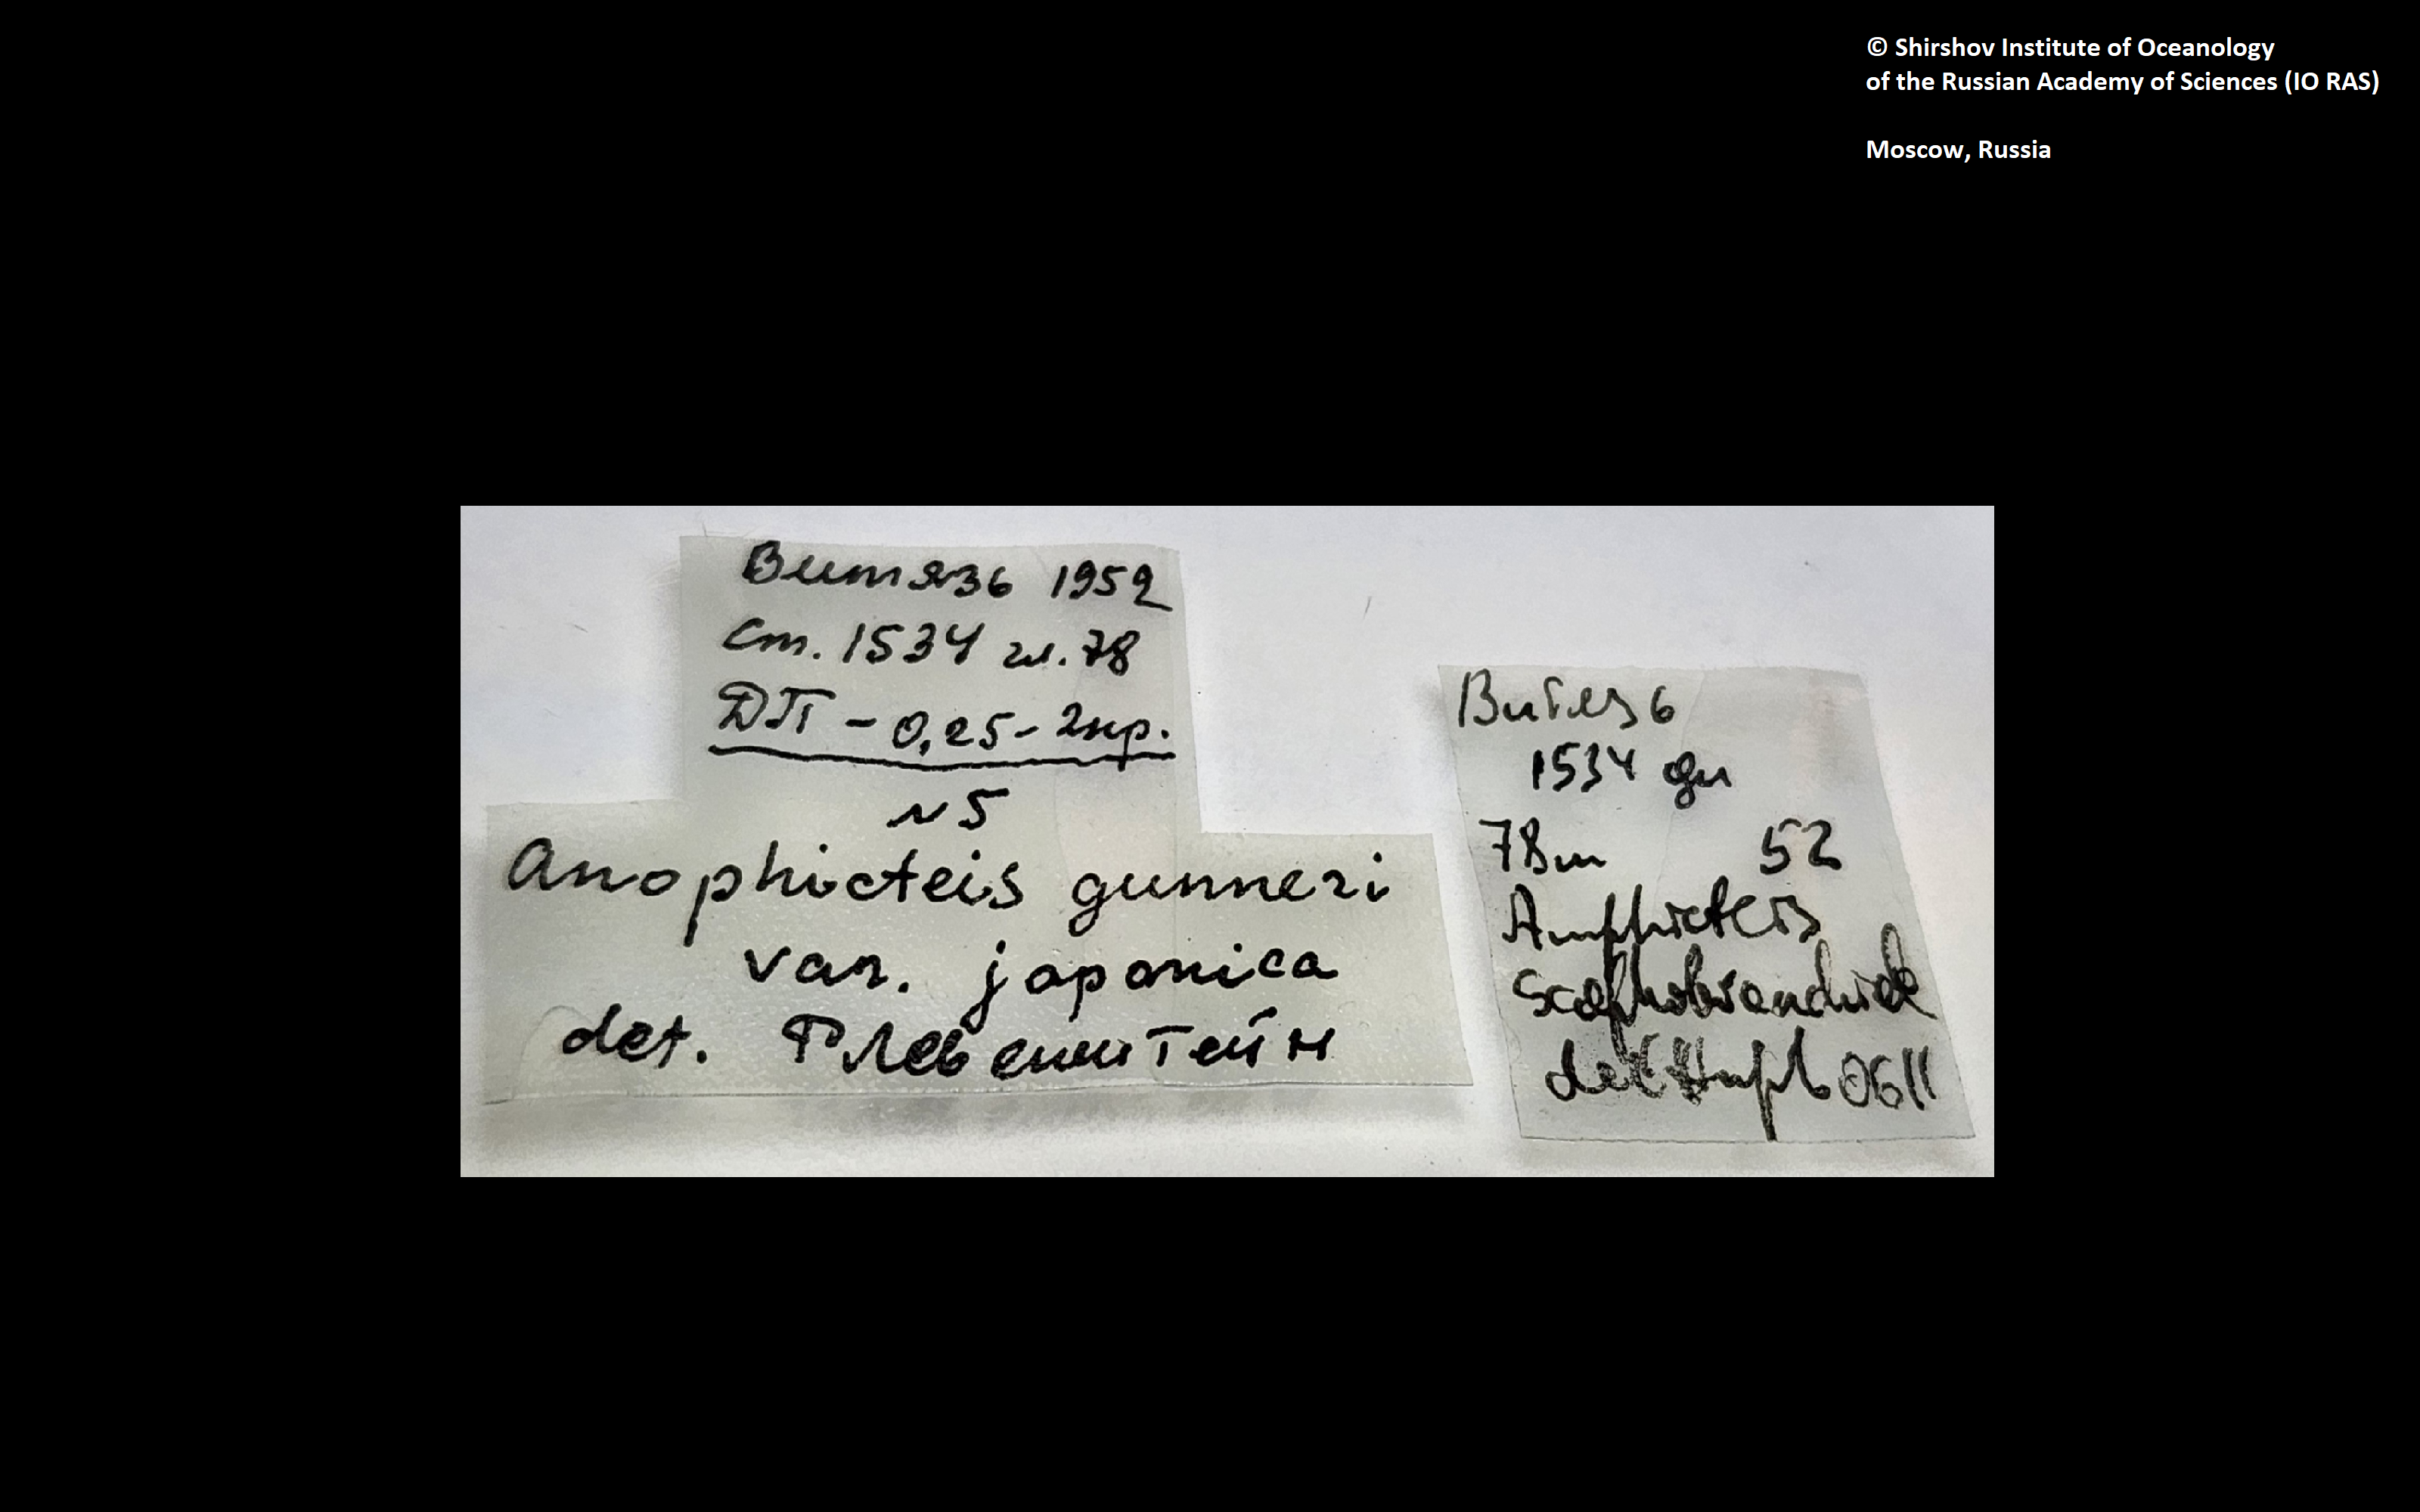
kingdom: Animalia
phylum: Annelida
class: Polychaeta
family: Ampharetidae
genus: Amphicteis
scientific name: Amphicteis nikiti
